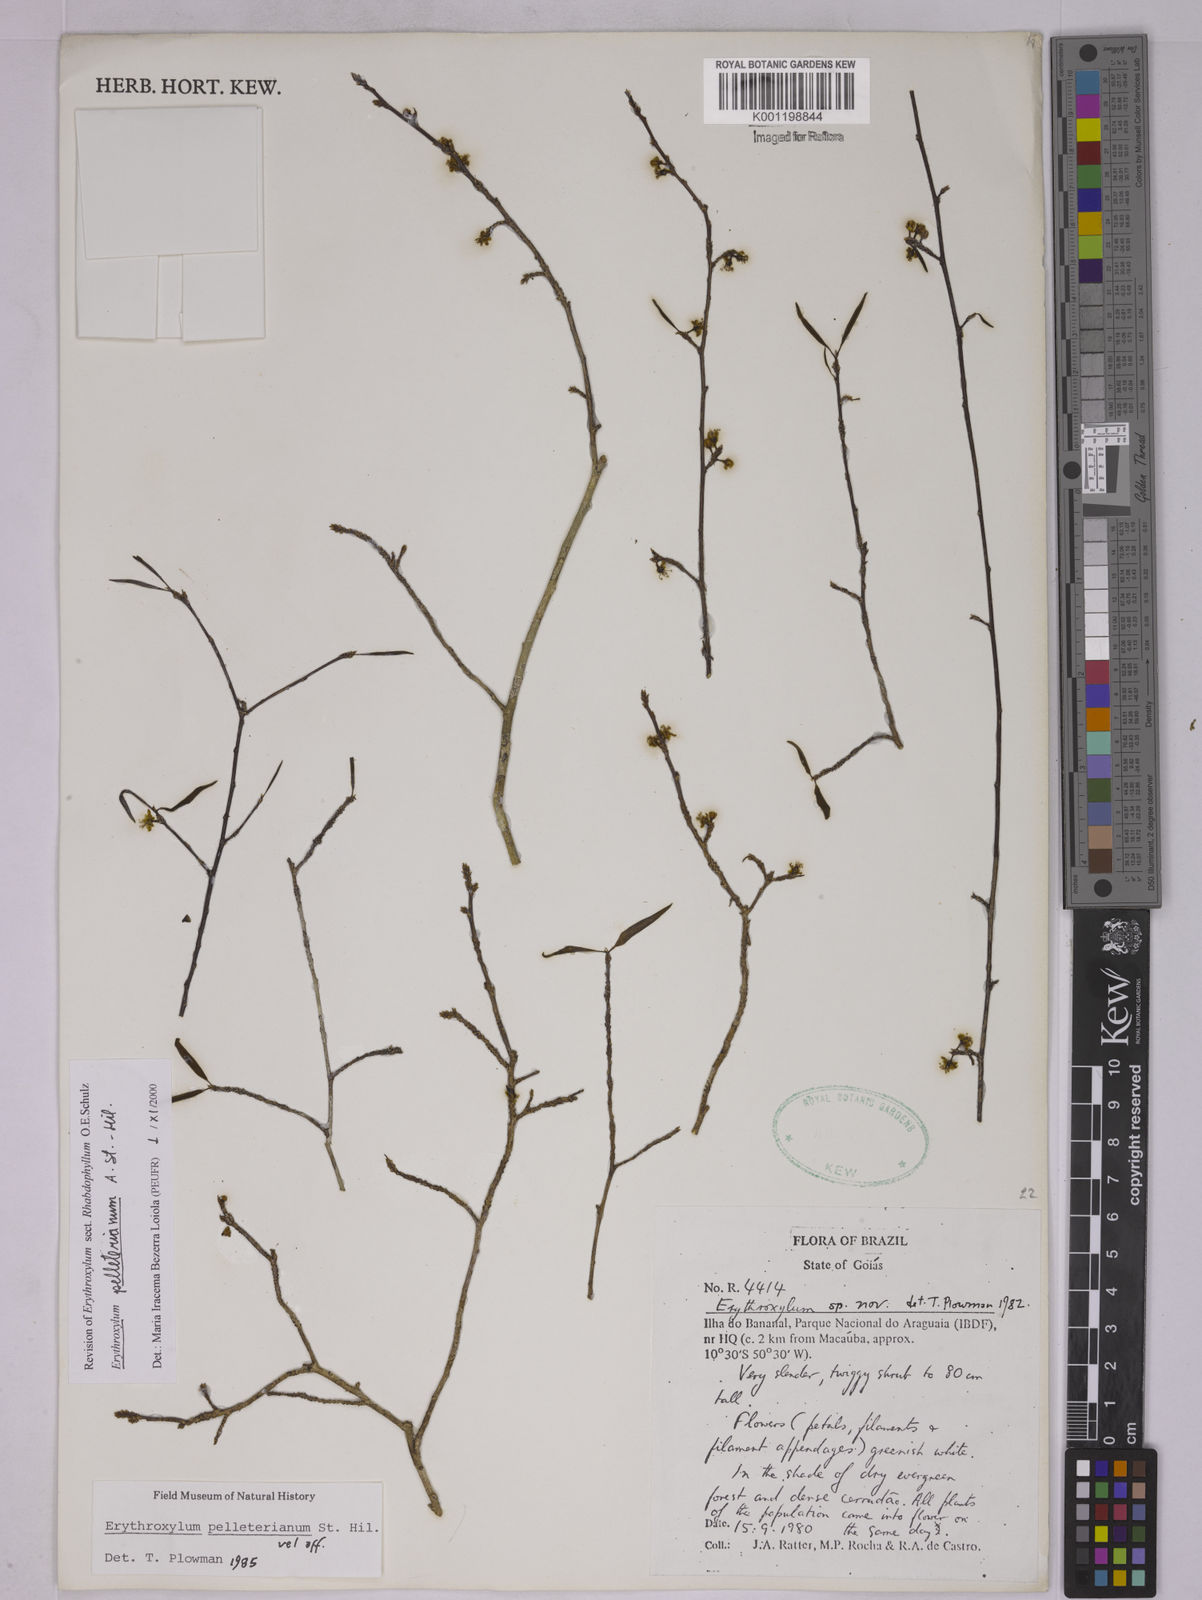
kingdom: Plantae
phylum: Tracheophyta
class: Magnoliopsida
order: Malpighiales
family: Erythroxylaceae
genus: Erythroxylum
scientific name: Erythroxylum pelleterianum
